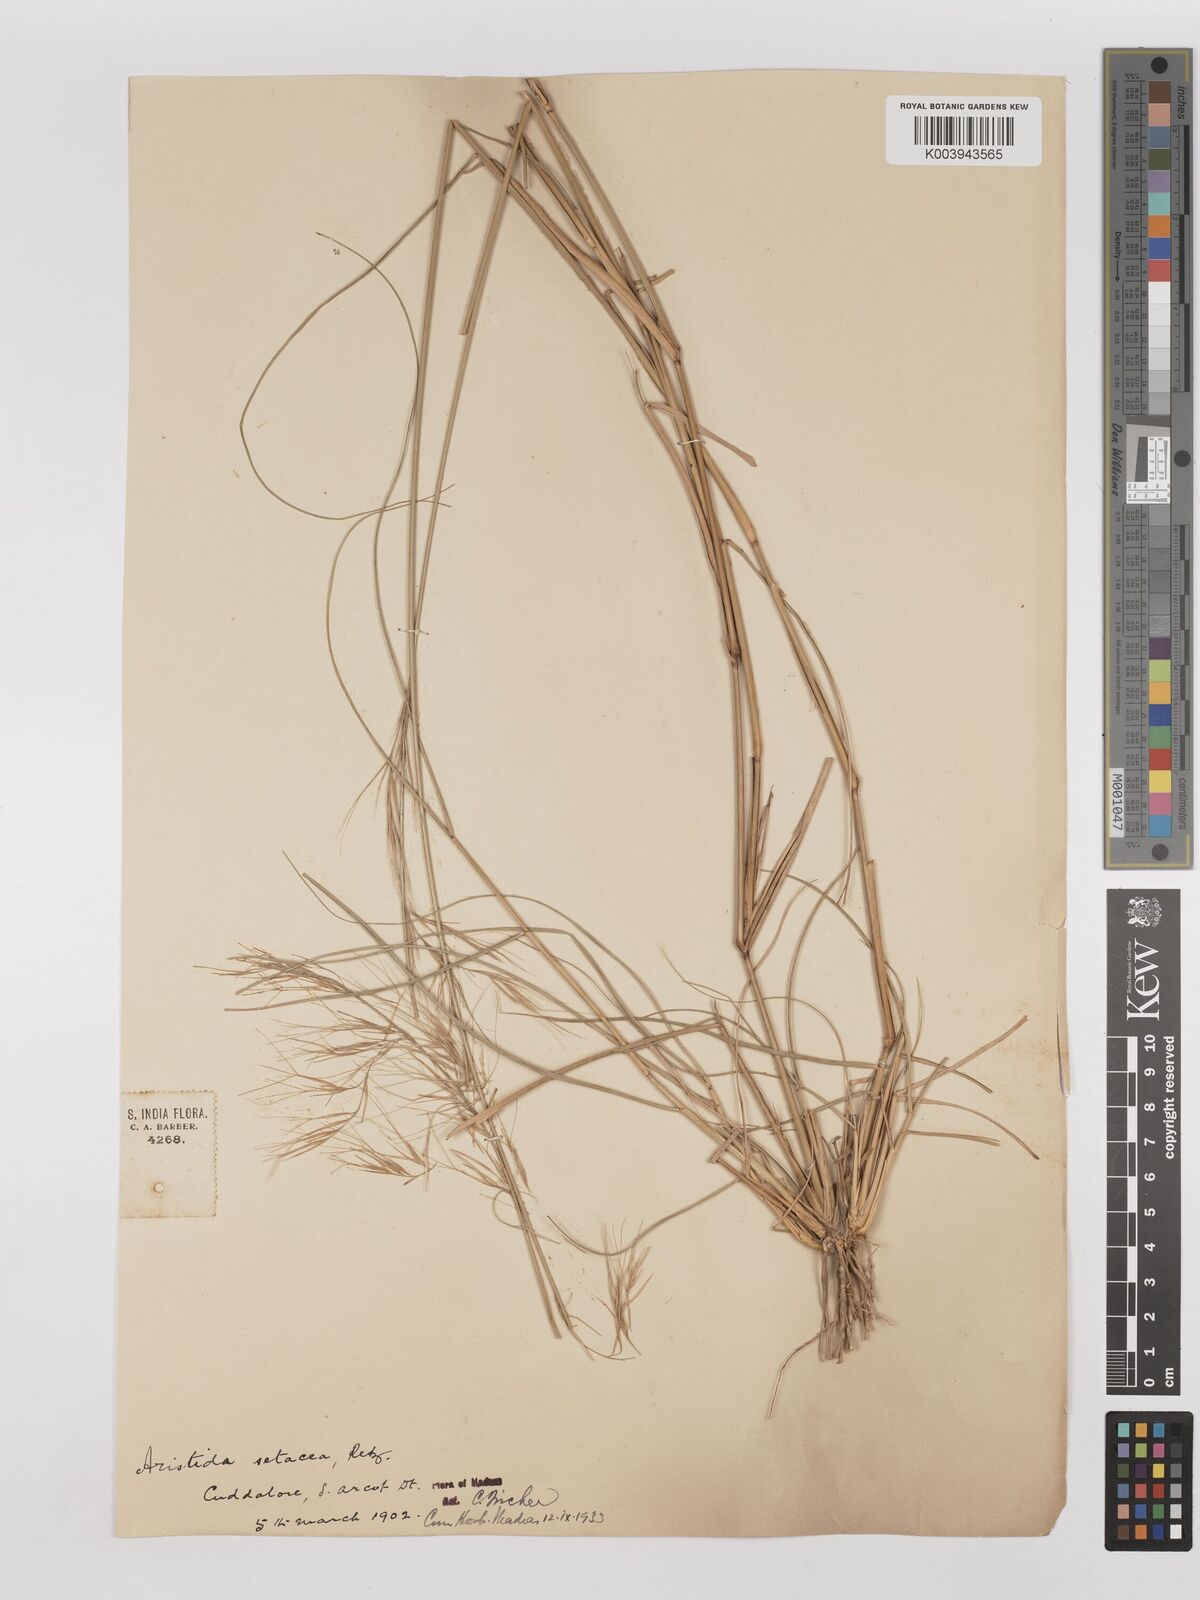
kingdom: Plantae
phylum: Tracheophyta
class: Liliopsida
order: Poales
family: Poaceae
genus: Aristida
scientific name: Aristida setacea
